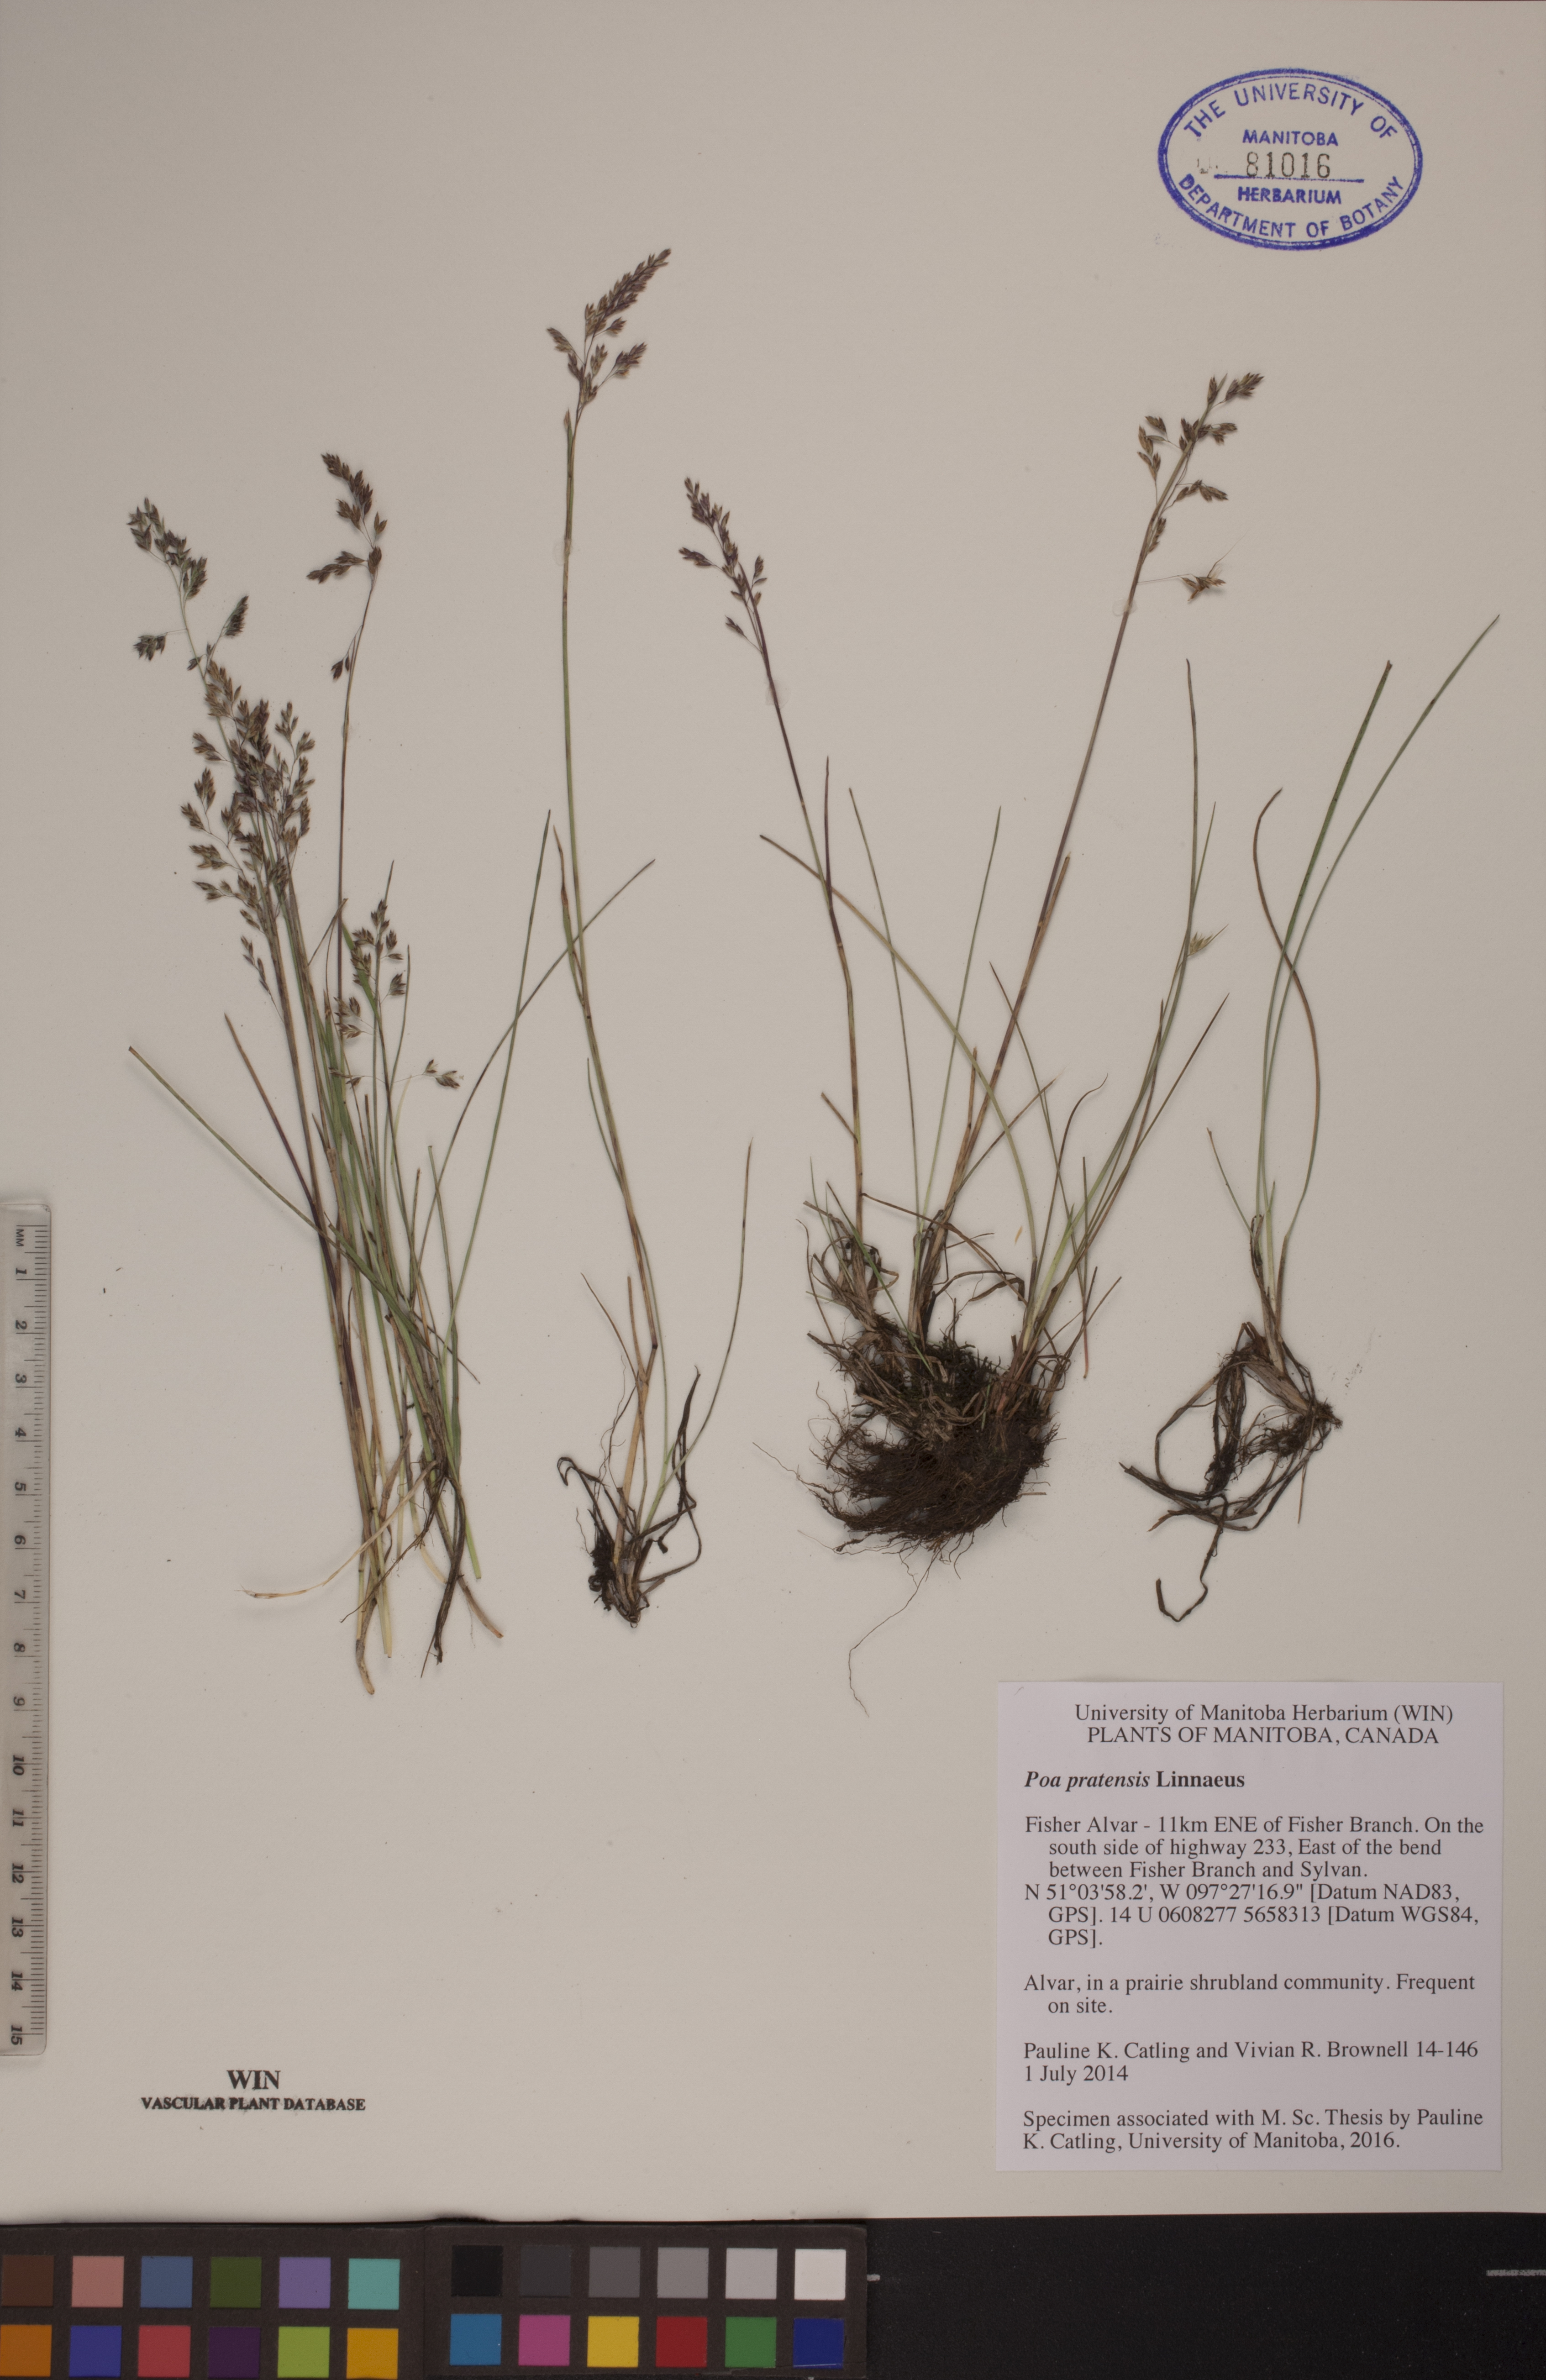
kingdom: Plantae
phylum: Tracheophyta
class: Liliopsida
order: Poales
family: Poaceae
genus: Poa
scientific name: Poa pratensis
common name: Kentucky bluegrass
